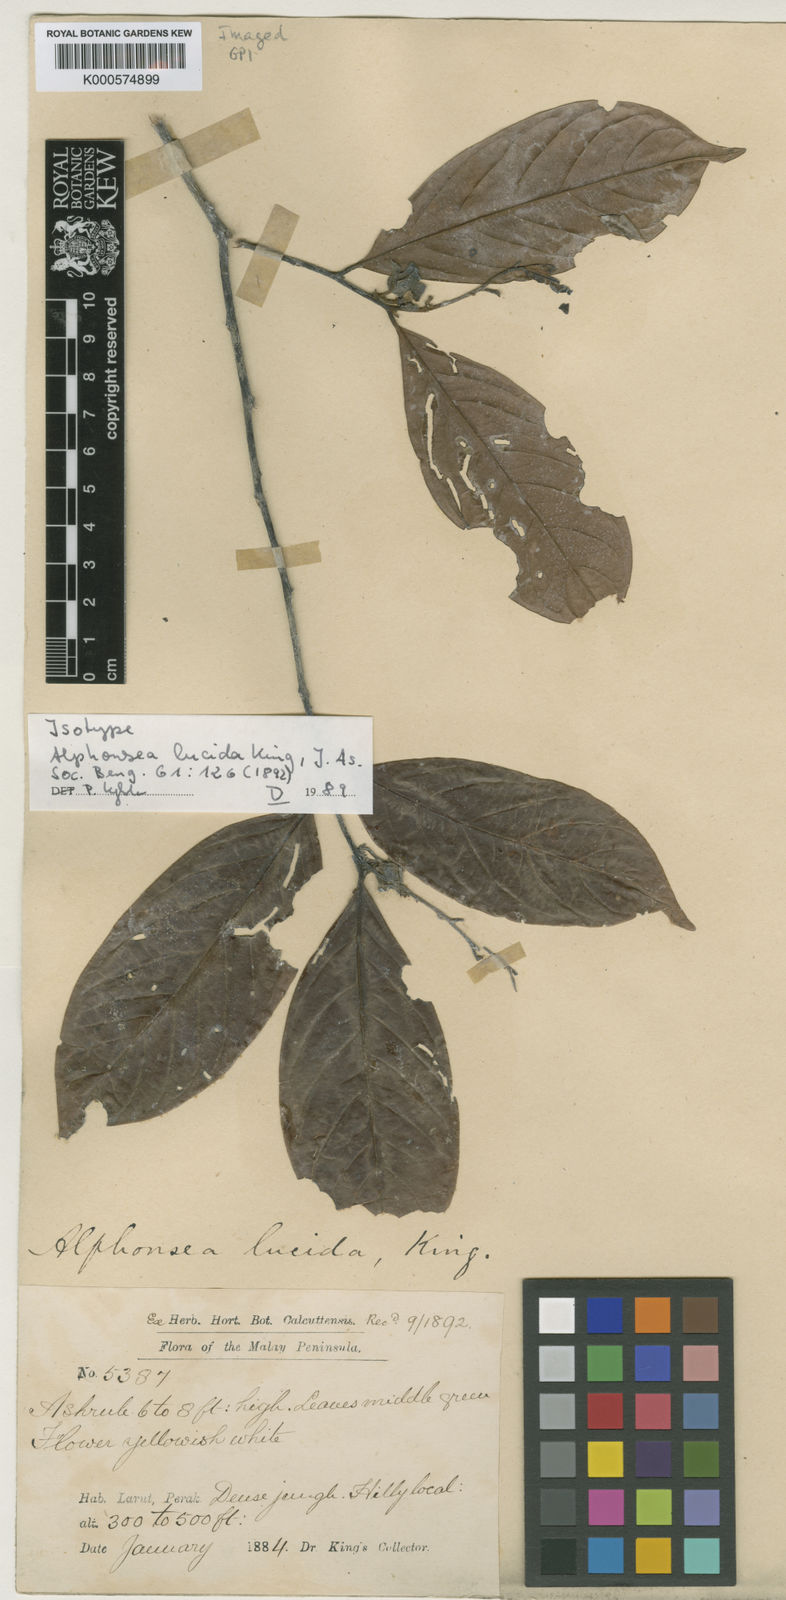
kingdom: Plantae
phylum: Tracheophyta
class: Magnoliopsida
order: Magnoliales
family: Annonaceae
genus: Alphonsea
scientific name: Alphonsea lucida
